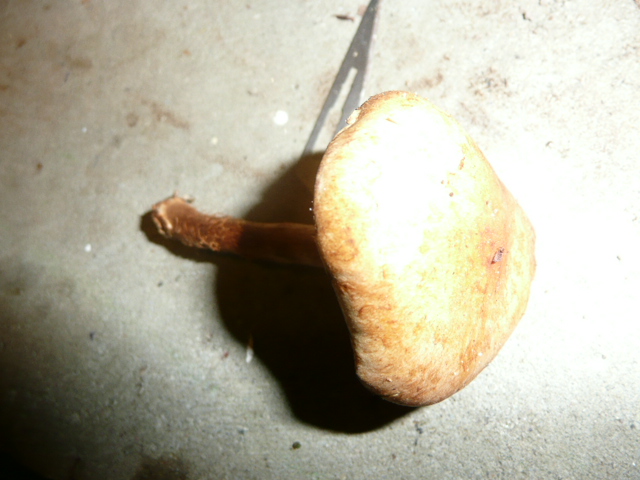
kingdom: Fungi
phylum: Basidiomycota
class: Agaricomycetes
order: Agaricales
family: Strophariaceae
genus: Hypholoma
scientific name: Hypholoma capnoides
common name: gran-svovlhat
